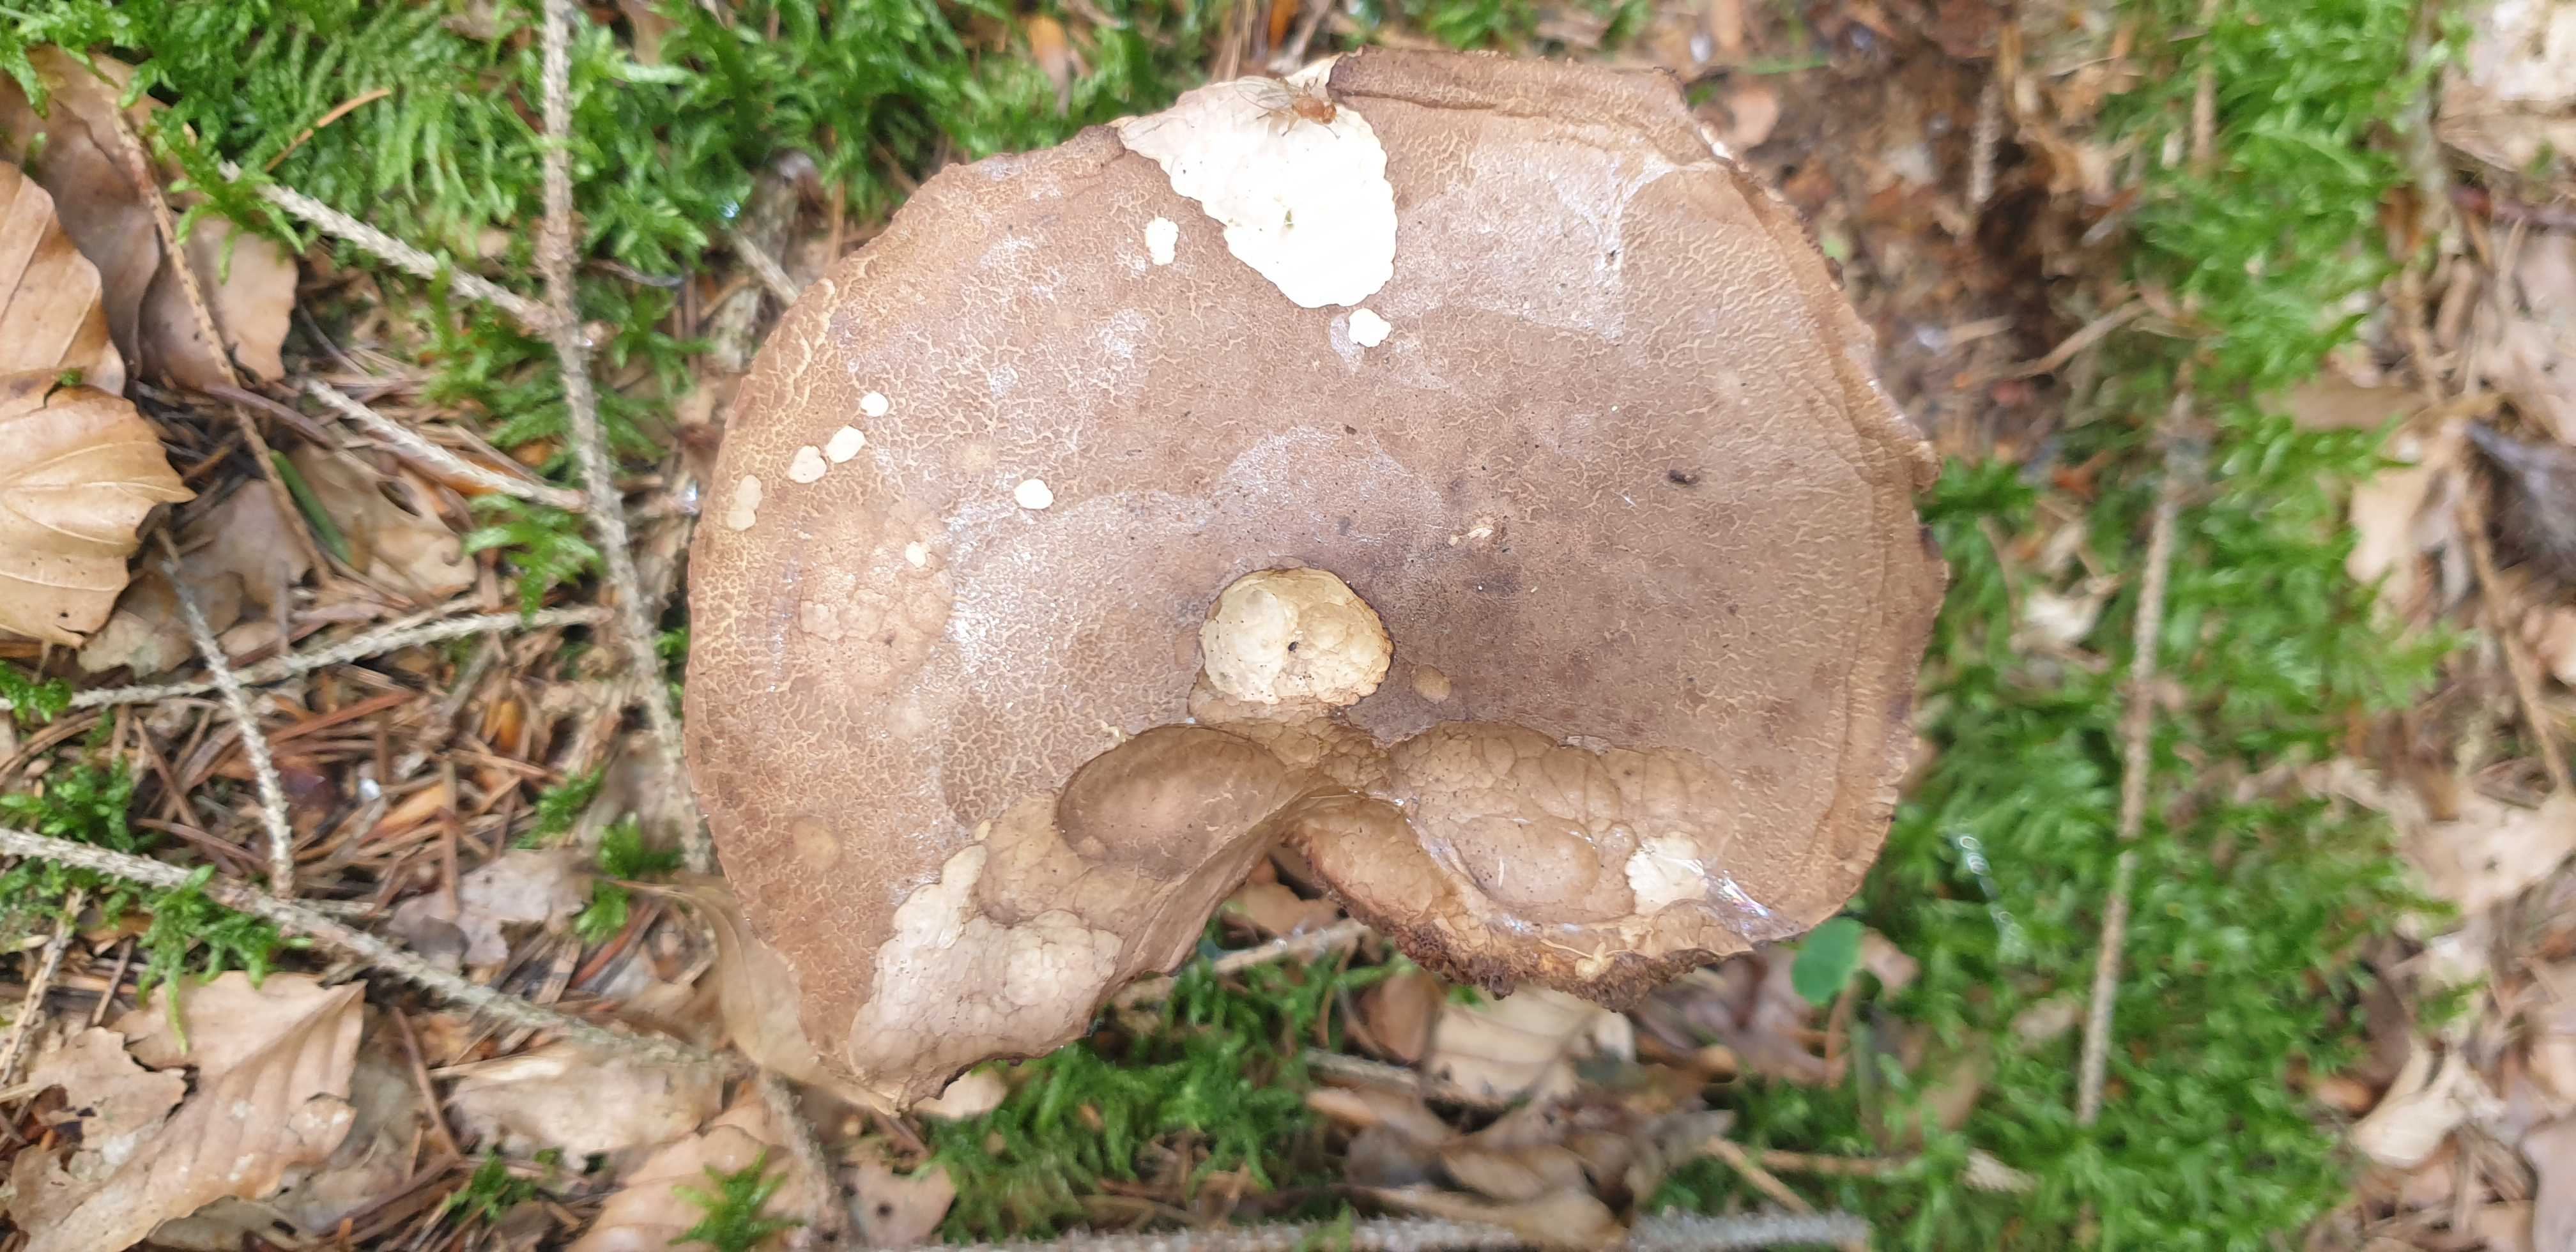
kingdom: Fungi
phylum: Basidiomycota
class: Agaricomycetes
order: Boletales
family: Boletaceae
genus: Tylopilus
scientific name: Tylopilus felleus
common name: galderørhat
